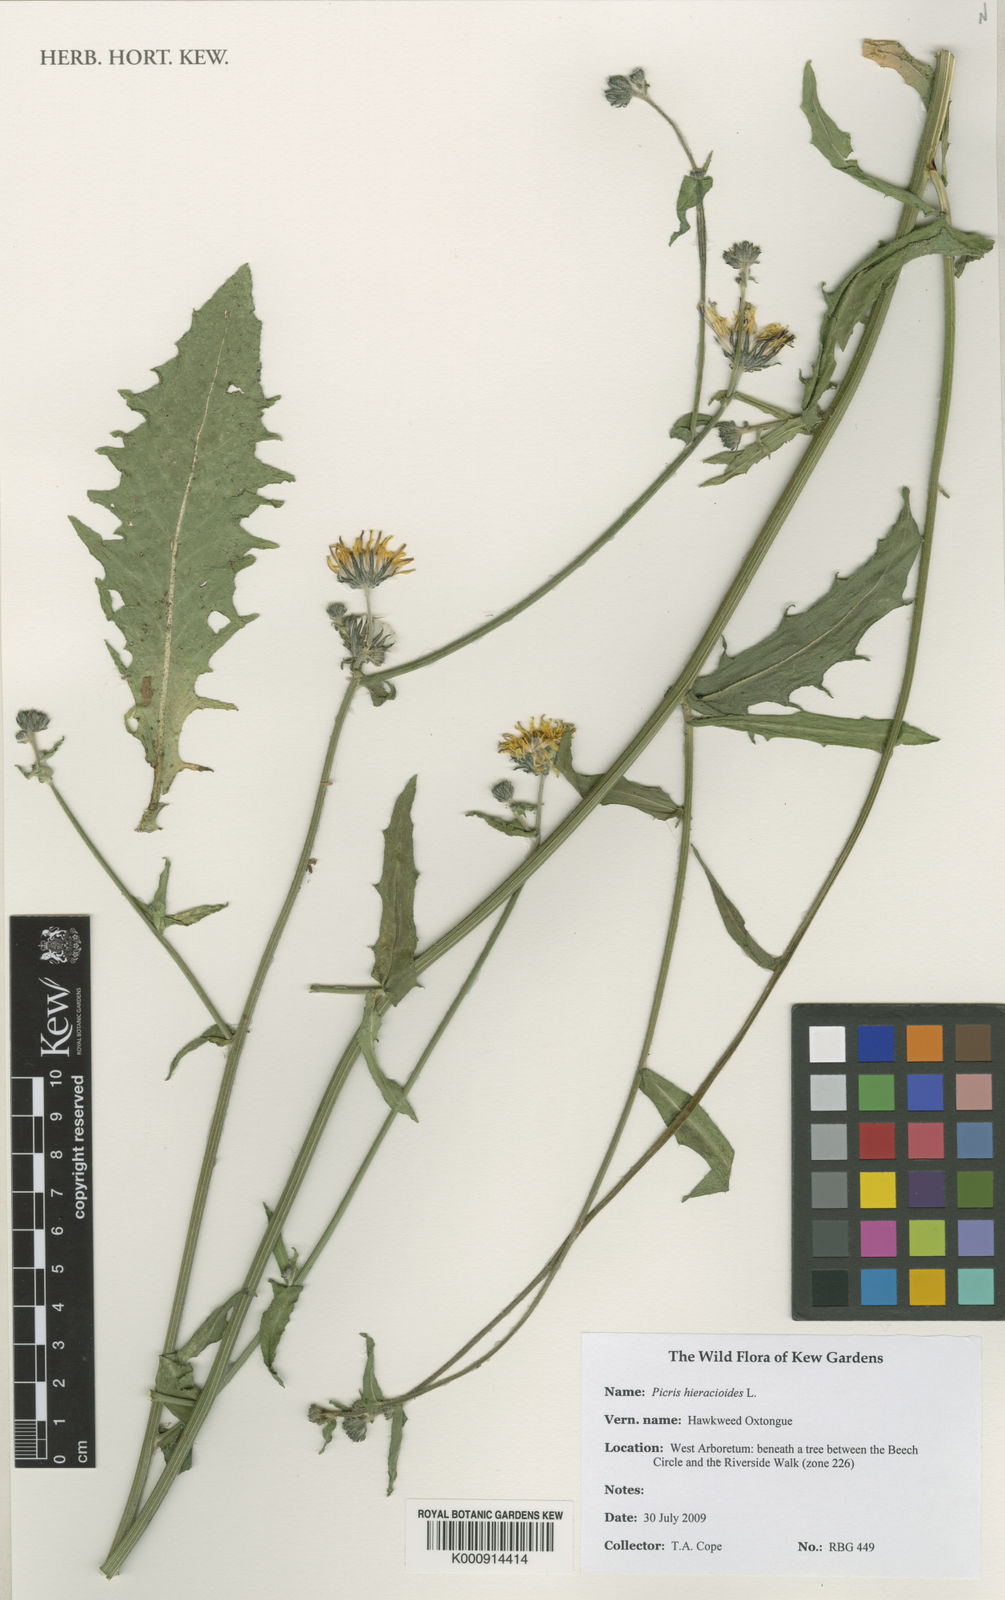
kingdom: Plantae
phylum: Tracheophyta
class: Magnoliopsida
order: Asterales
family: Asteraceae
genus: Picris
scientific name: Picris hieracioides
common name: Hawkweed oxtongue
